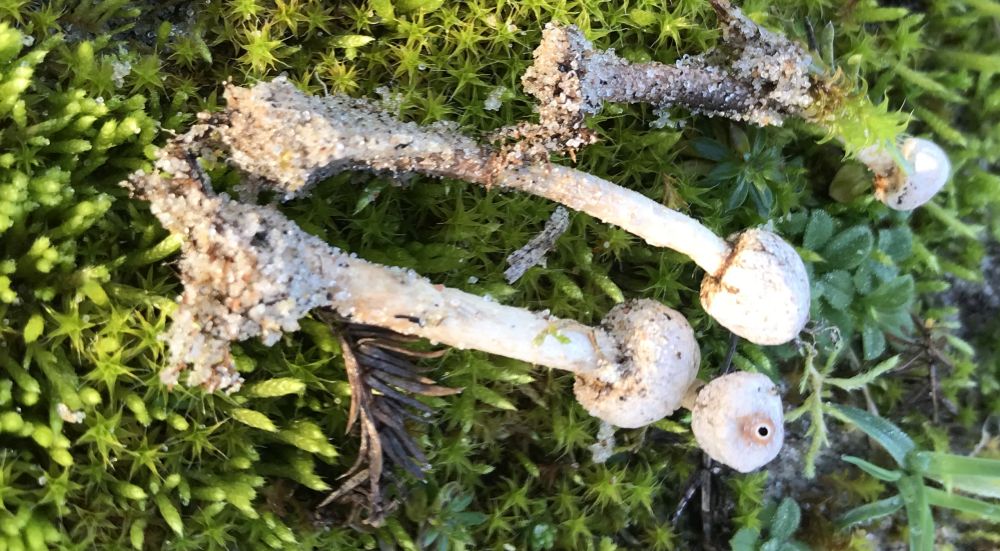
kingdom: Fungi
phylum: Basidiomycota
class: Agaricomycetes
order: Agaricales
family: Agaricaceae
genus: Tulostoma
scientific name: Tulostoma brumale
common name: vinter-stilkbovist
